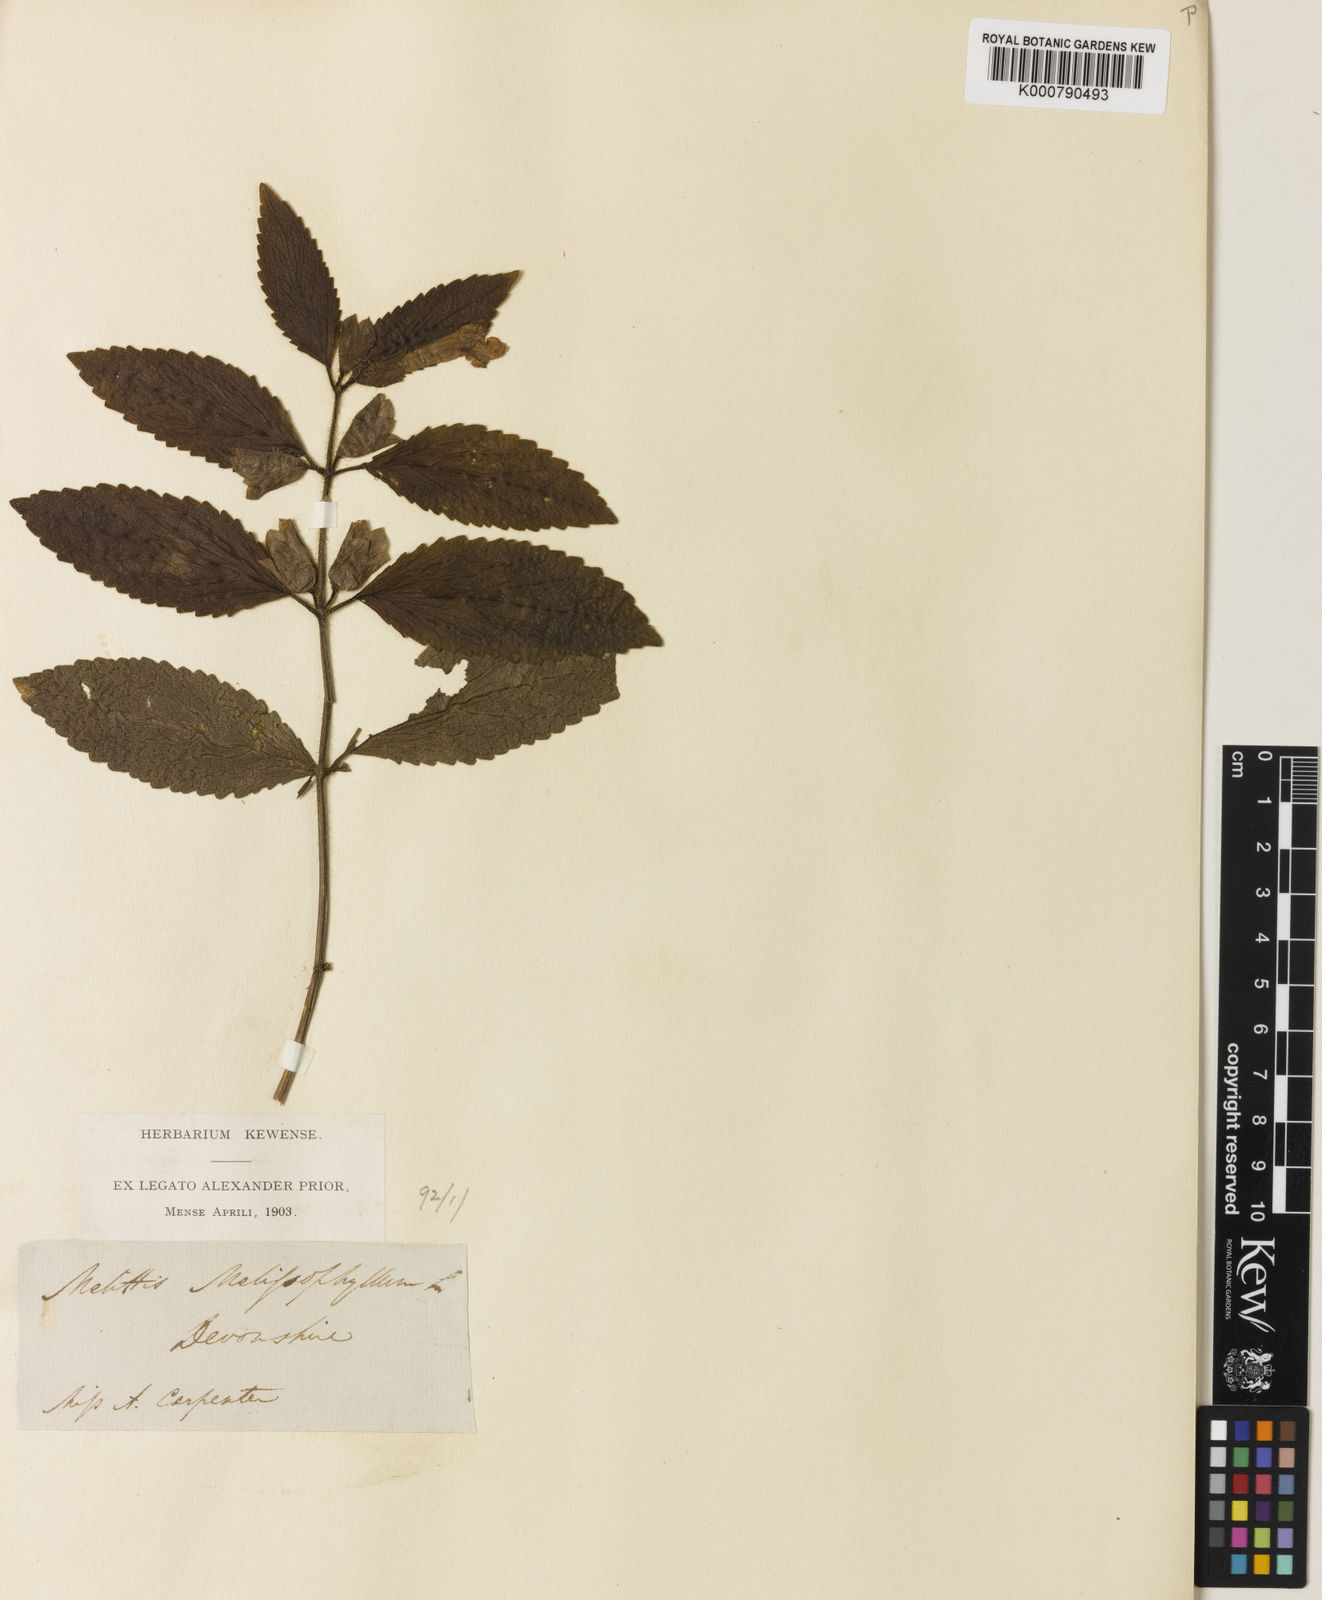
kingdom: Plantae
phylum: Tracheophyta
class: Magnoliopsida
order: Lamiales
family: Lamiaceae
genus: Melittis
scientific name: Melittis melissophyllum
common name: Bastard balm
